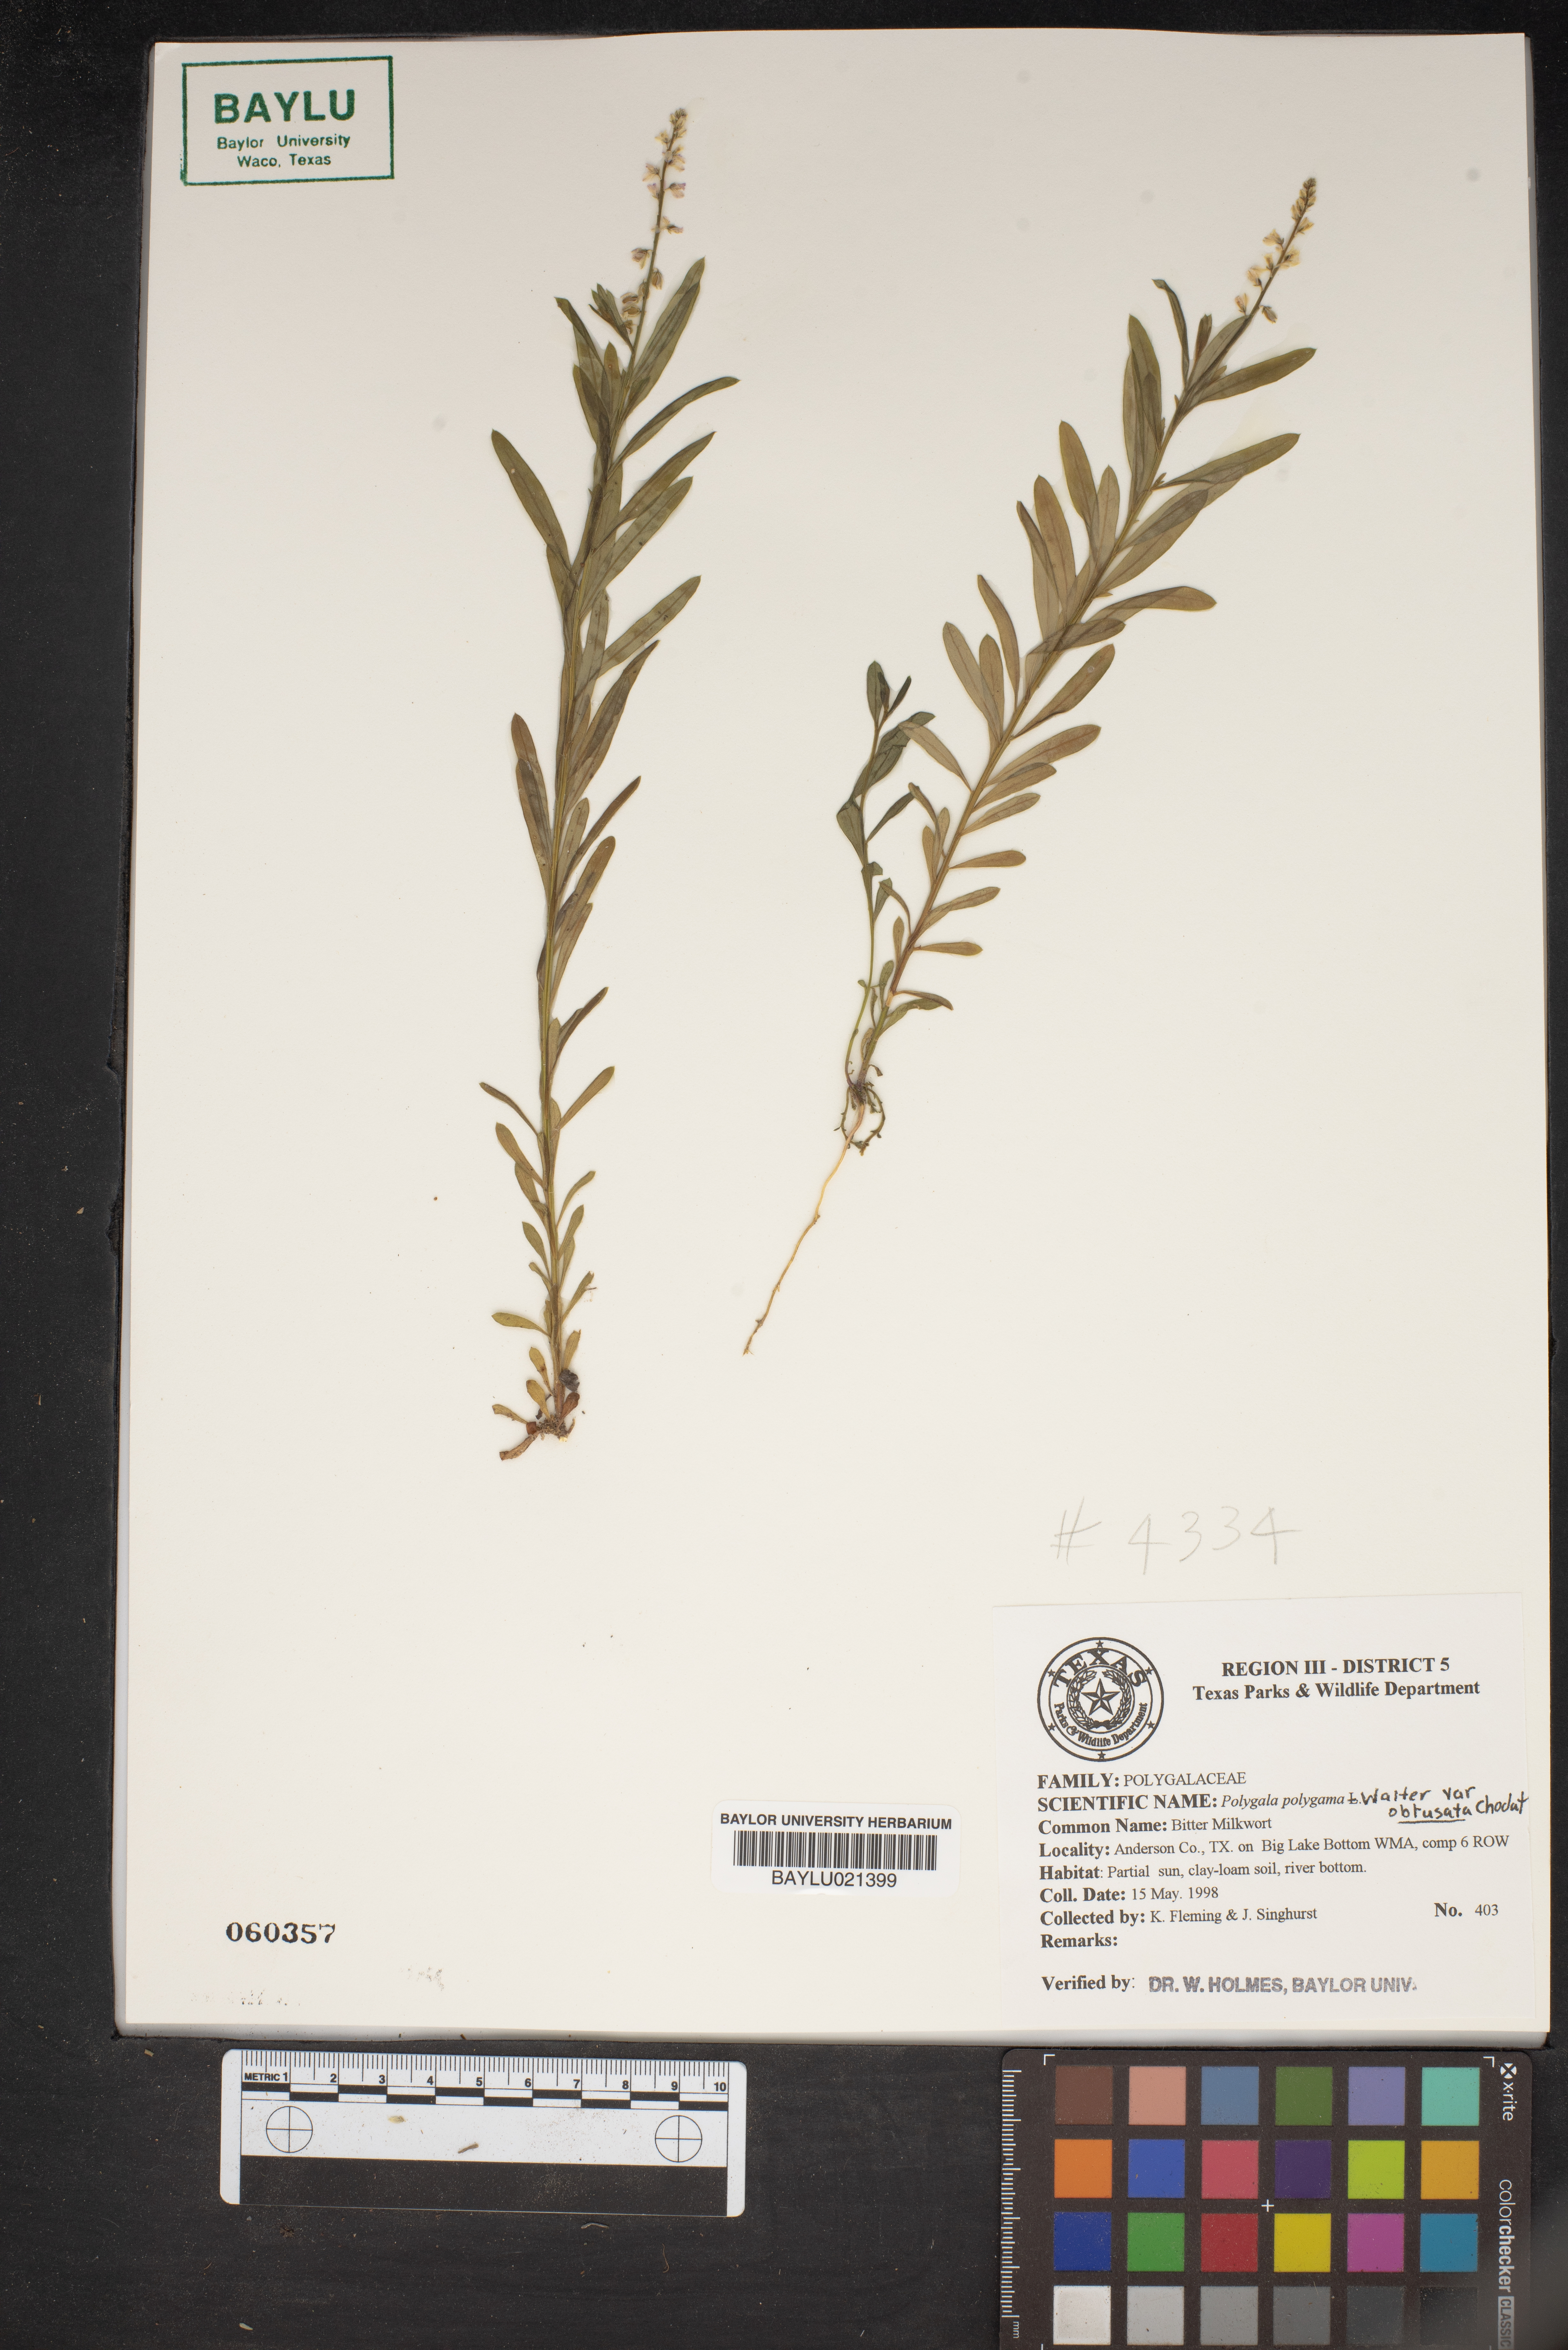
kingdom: Plantae
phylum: Tracheophyta
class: Magnoliopsida
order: Fabales
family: Polygalaceae
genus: Polygala
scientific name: Polygala polygama
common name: Bitter milkwort
